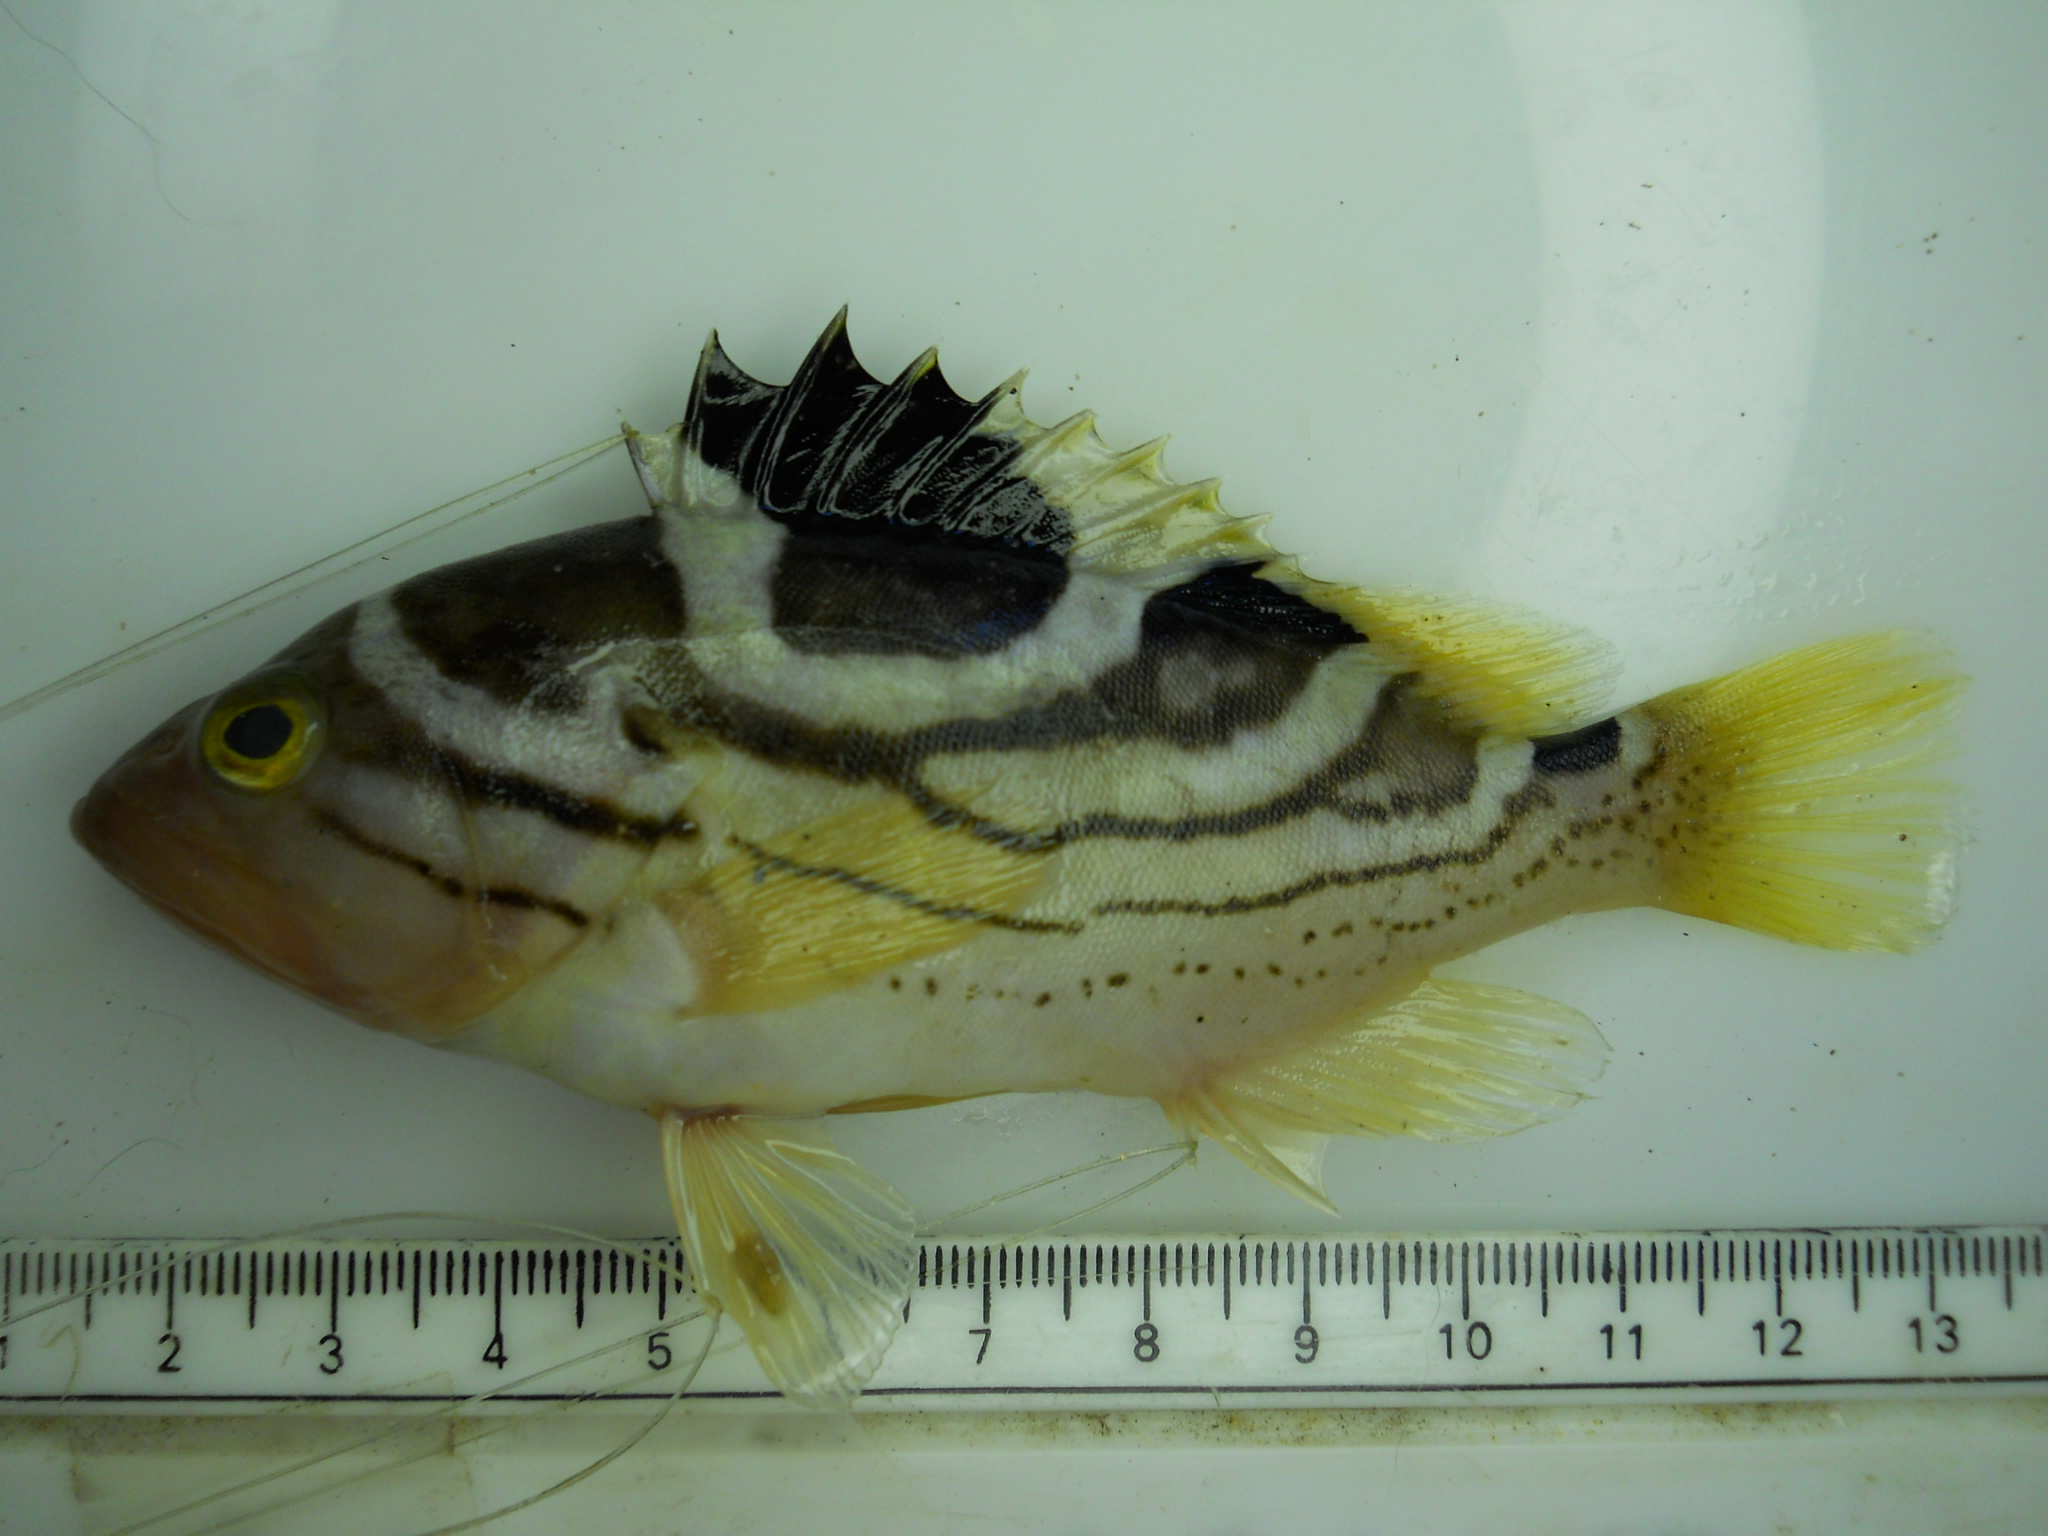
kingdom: Animalia
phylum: Chordata
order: Perciformes
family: Serranidae
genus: Epinephelus
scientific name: Epinephelus poecilonotus
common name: Dot-dash grouper
